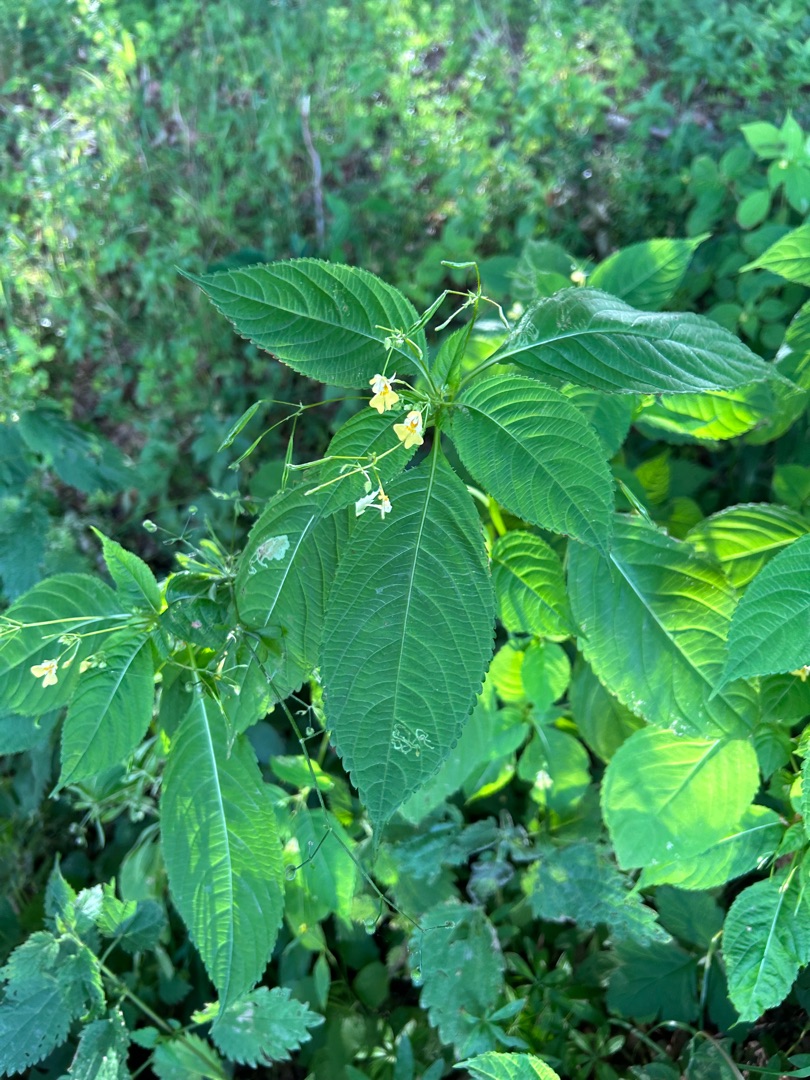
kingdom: Plantae
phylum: Tracheophyta
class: Magnoliopsida
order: Ericales
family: Balsaminaceae
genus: Impatiens
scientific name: Impatiens parviflora
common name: Småblomstret balsamin
